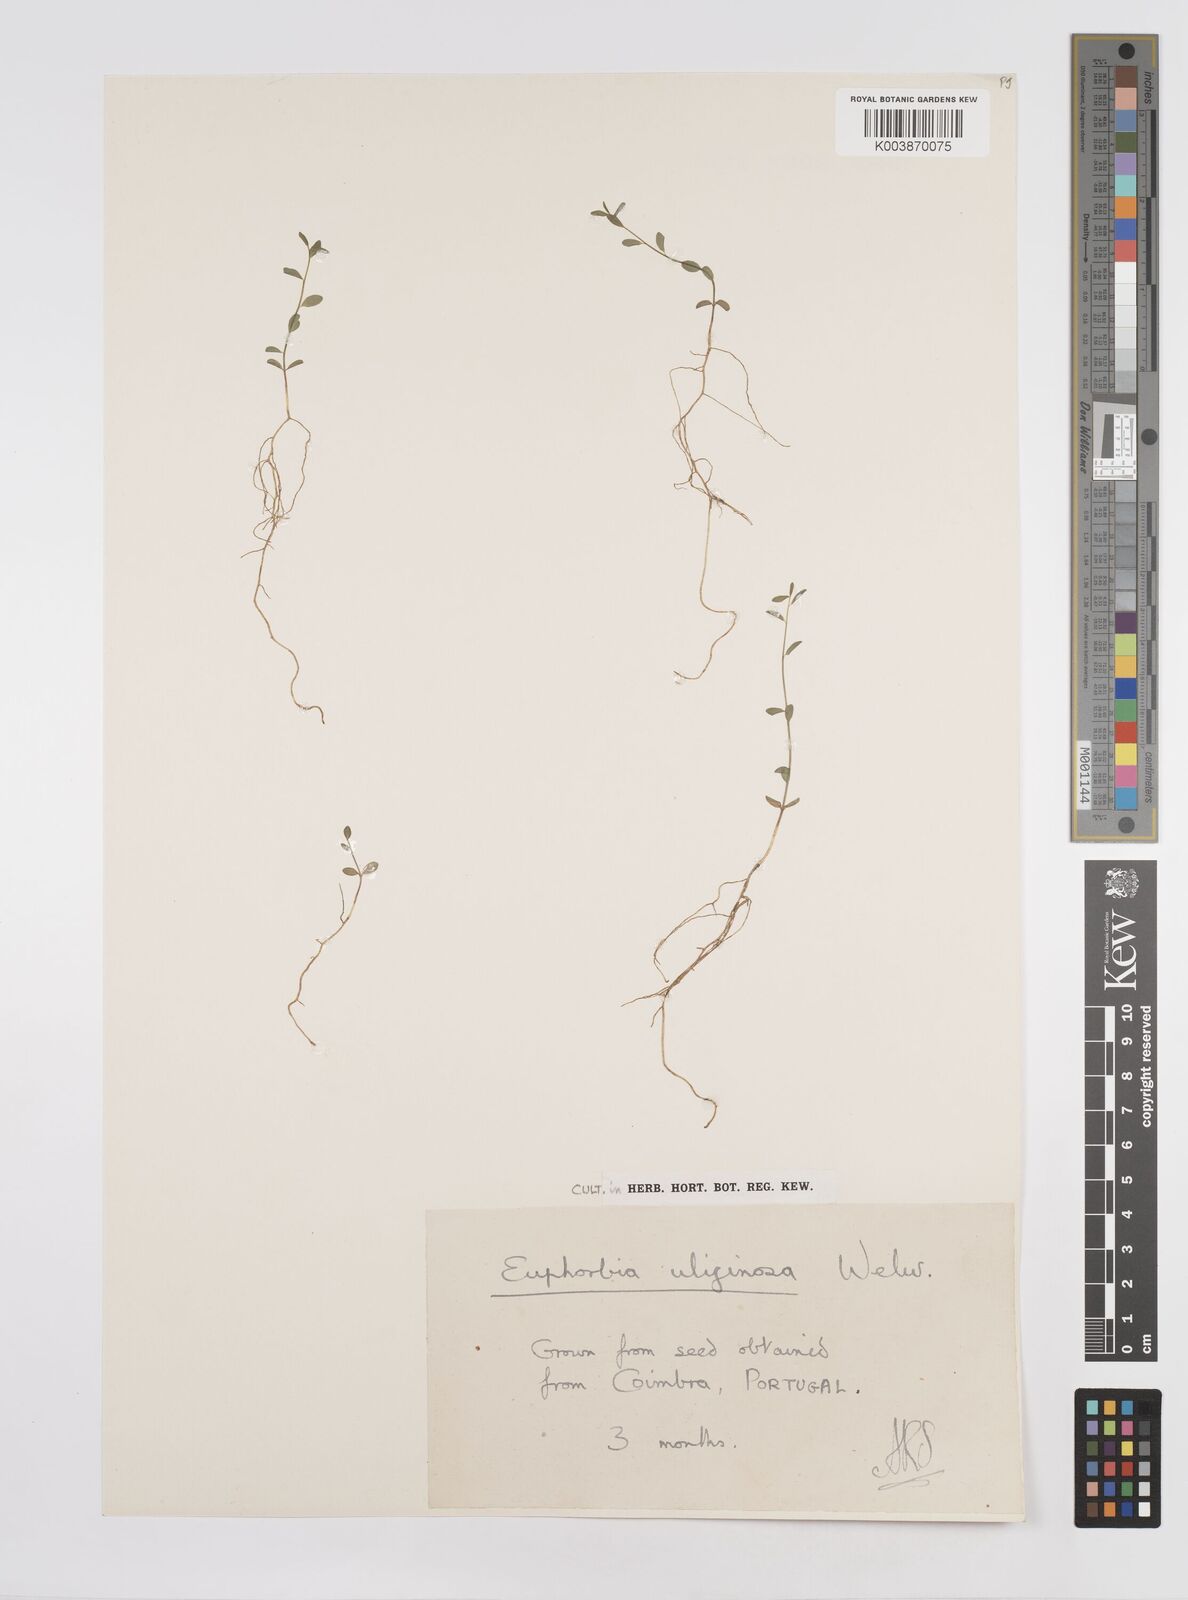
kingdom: Plantae
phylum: Tracheophyta
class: Magnoliopsida
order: Malpighiales
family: Euphorbiaceae
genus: Euphorbia
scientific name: Euphorbia uliginosa
